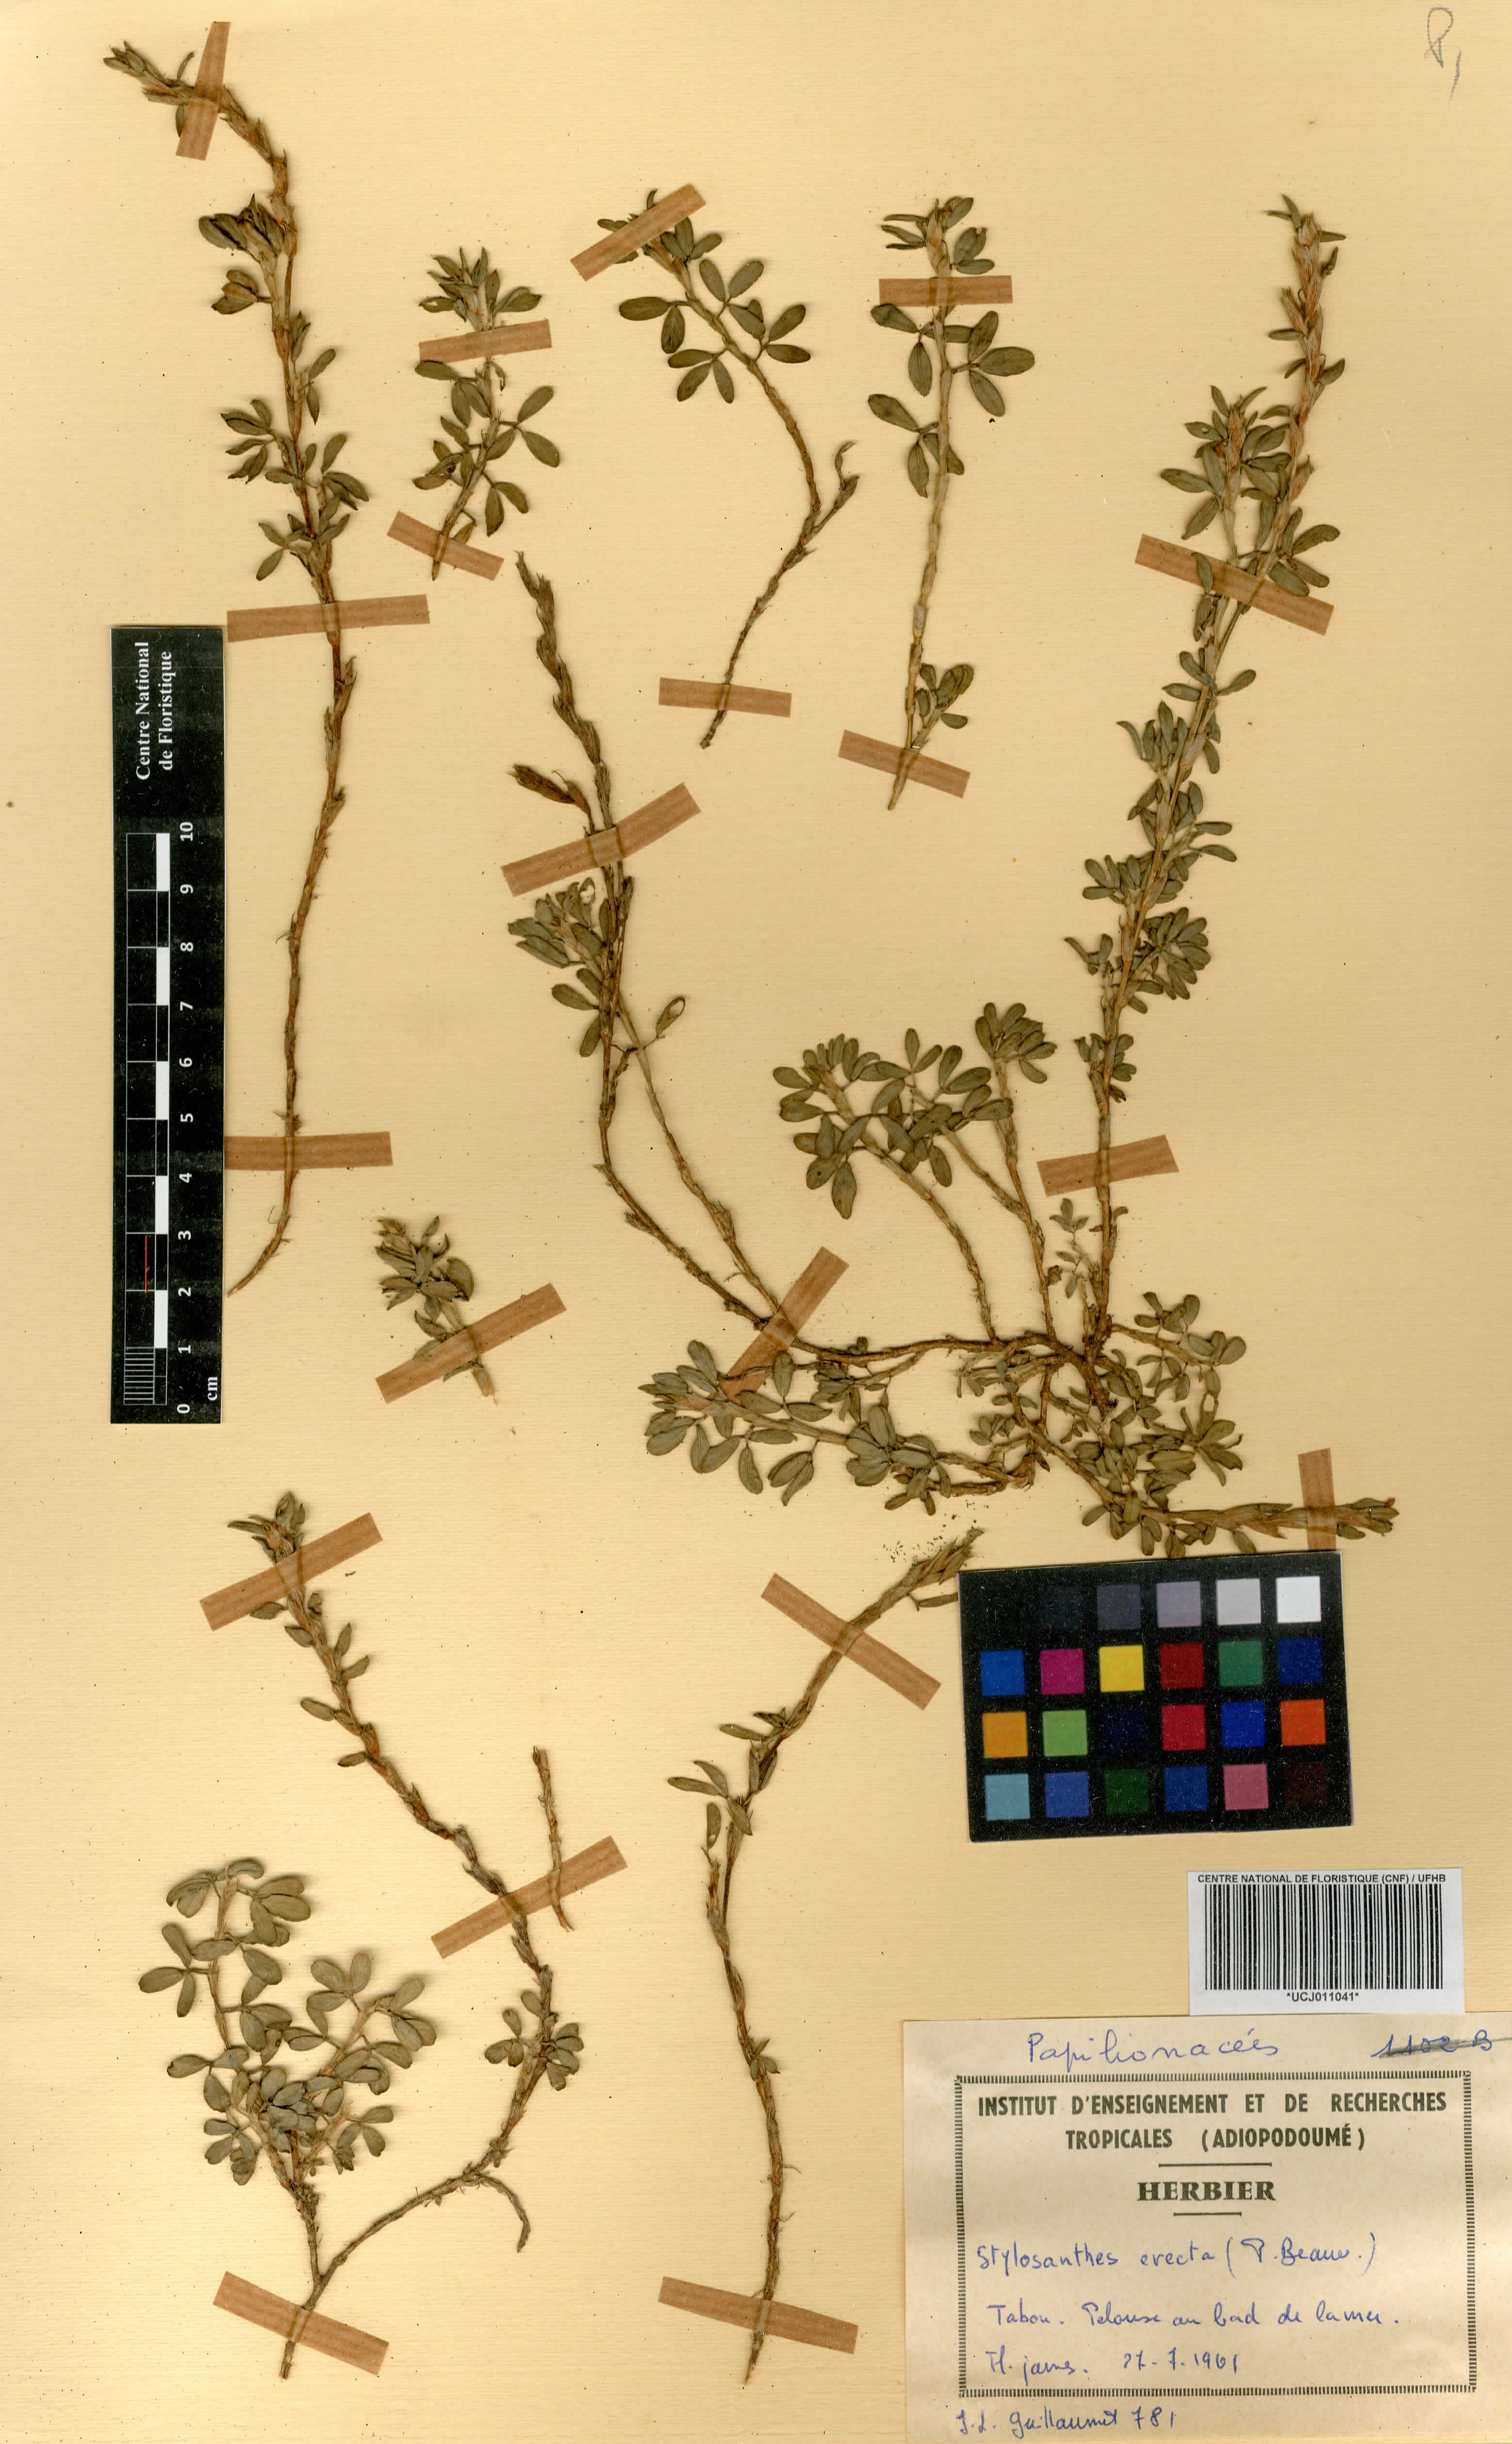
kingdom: Plantae
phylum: Tracheophyta
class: Magnoliopsida
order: Fabales
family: Fabaceae
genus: Stylosanthes
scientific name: Stylosanthes erecta
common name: Nigerian stylo
